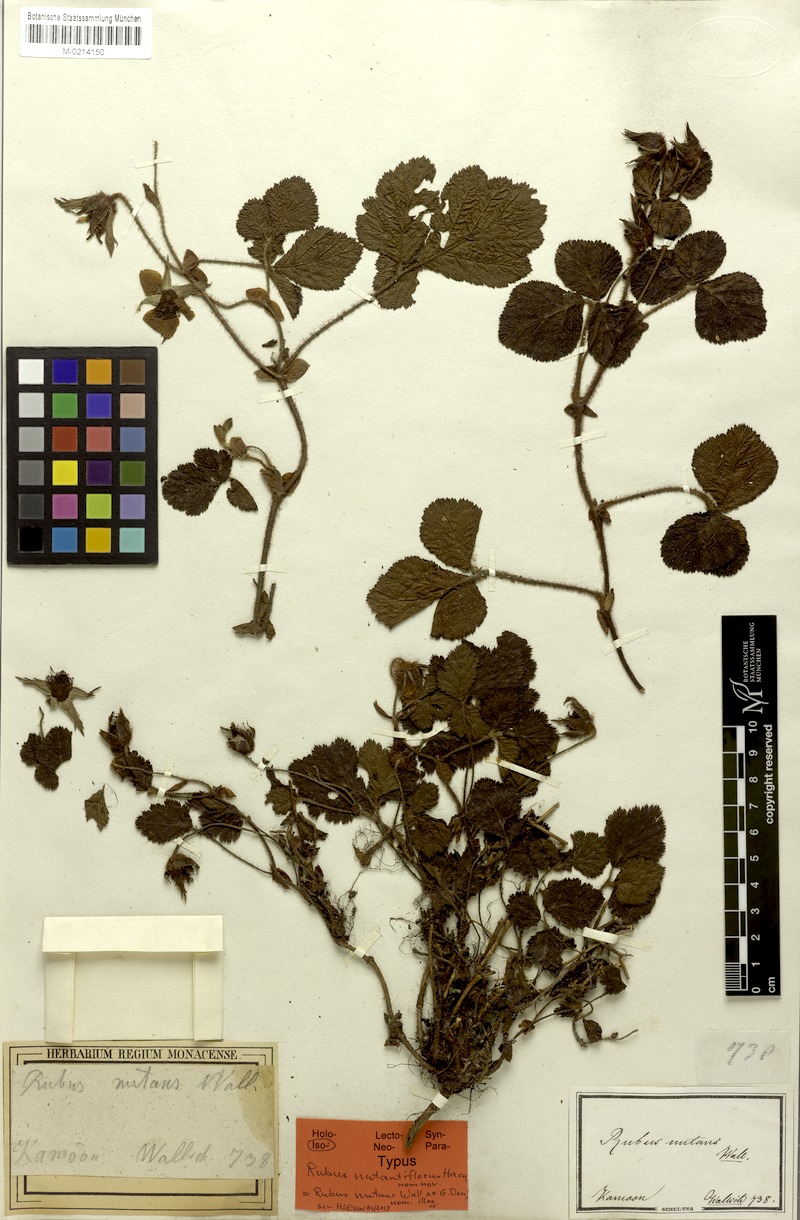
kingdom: Plantae
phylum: Tracheophyta
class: Magnoliopsida
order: Rosales
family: Rosaceae
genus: Rubus
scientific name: Rubus nepalensis
